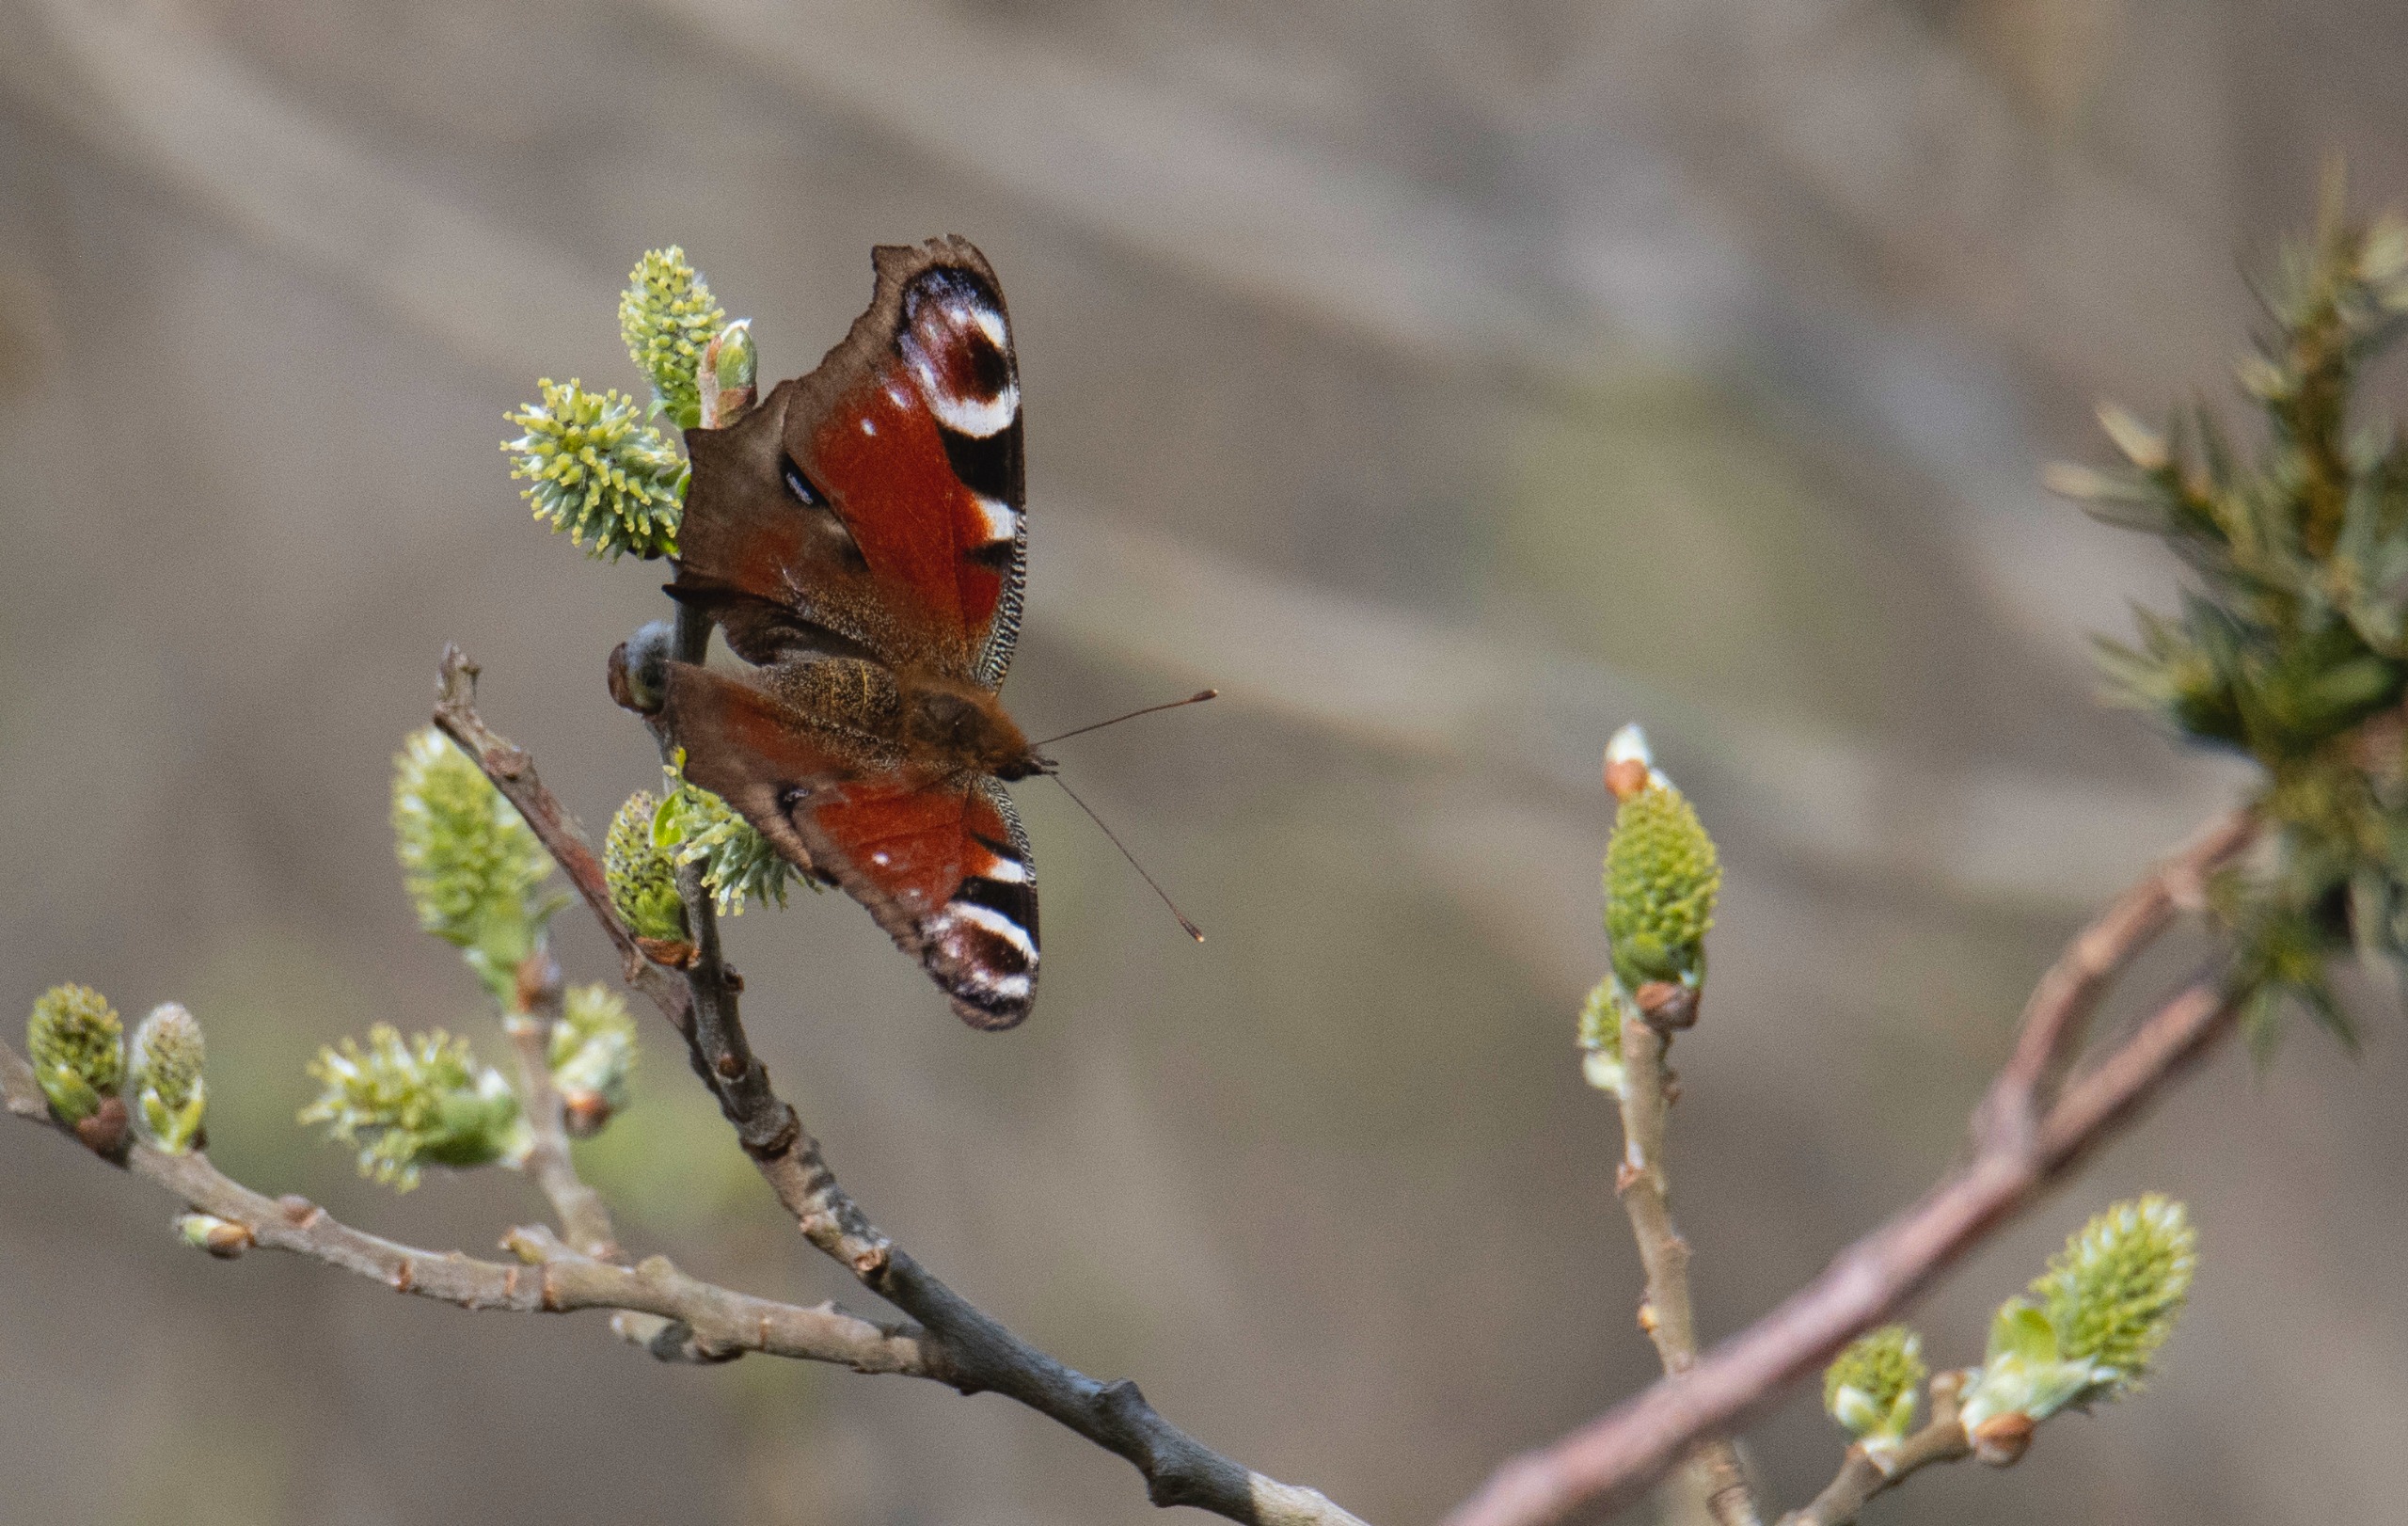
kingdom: Animalia
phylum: Arthropoda
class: Insecta
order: Lepidoptera
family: Nymphalidae
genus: Aglais
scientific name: Aglais io
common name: Dagpåfugleøje
